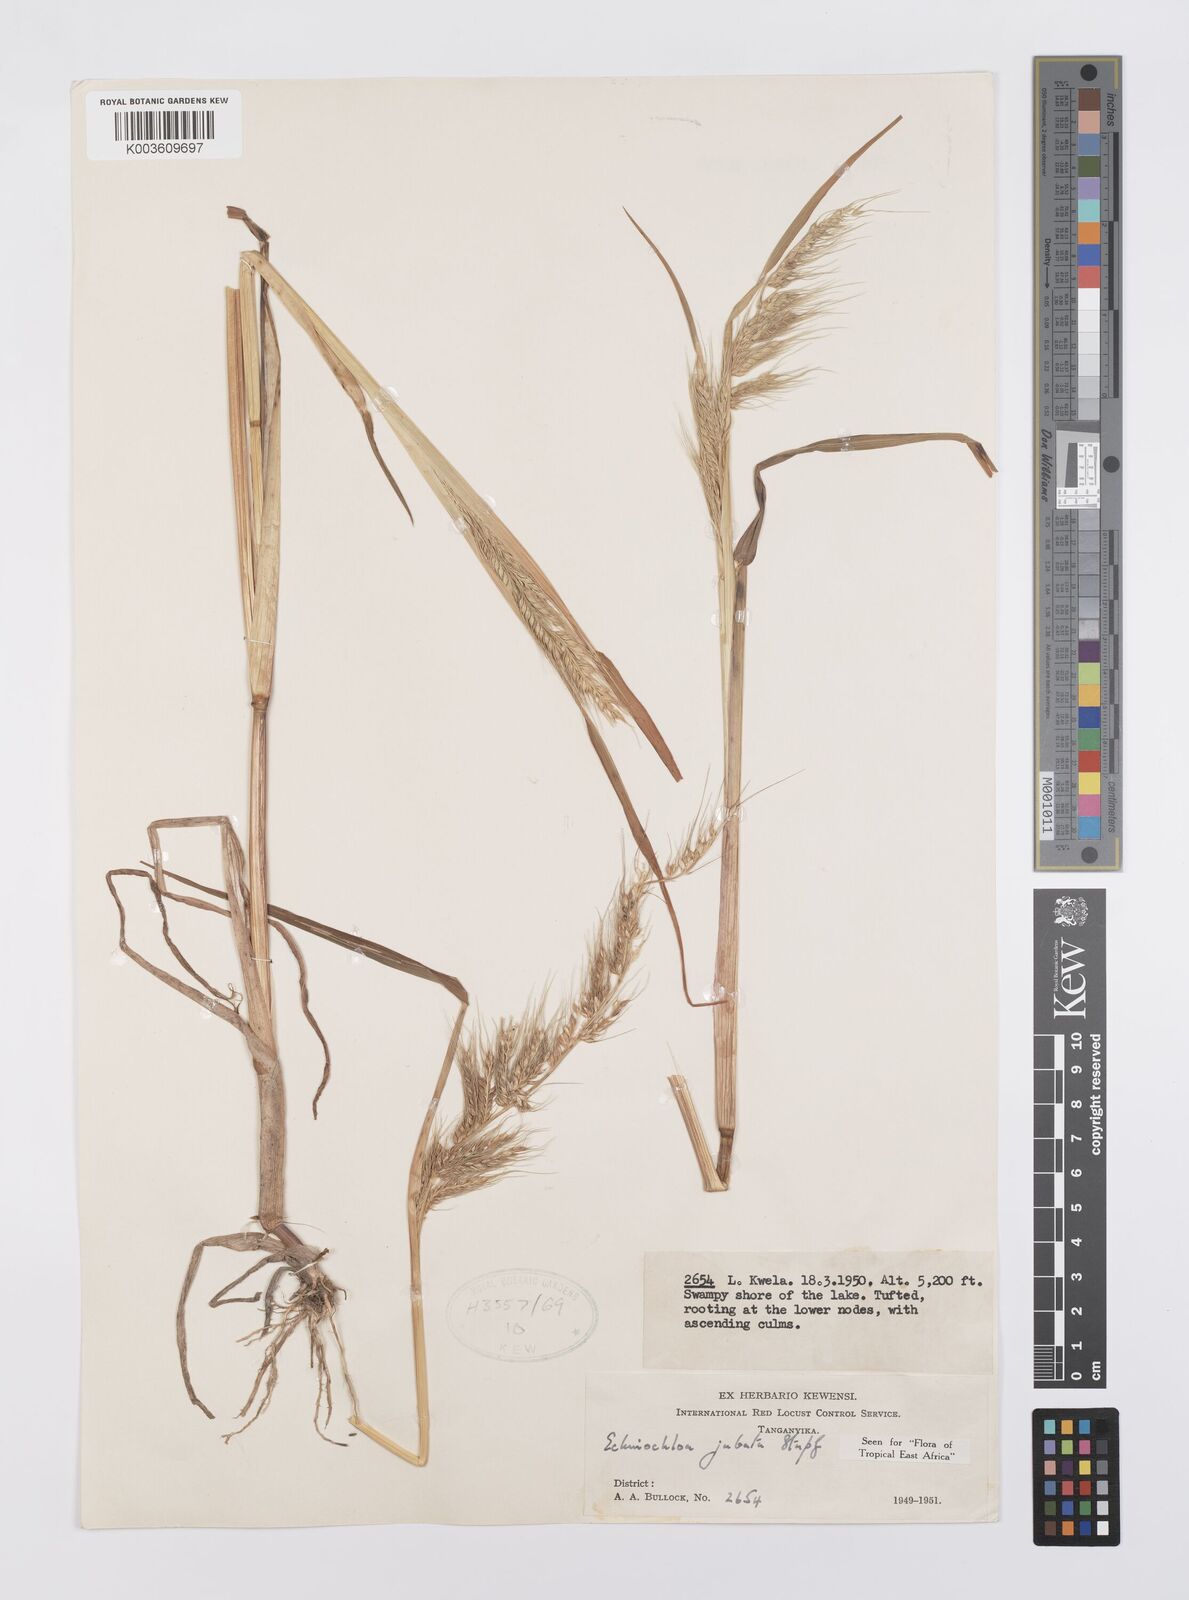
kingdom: Plantae
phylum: Tracheophyta
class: Liliopsida
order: Poales
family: Poaceae
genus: Echinochloa
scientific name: Echinochloa jubata
